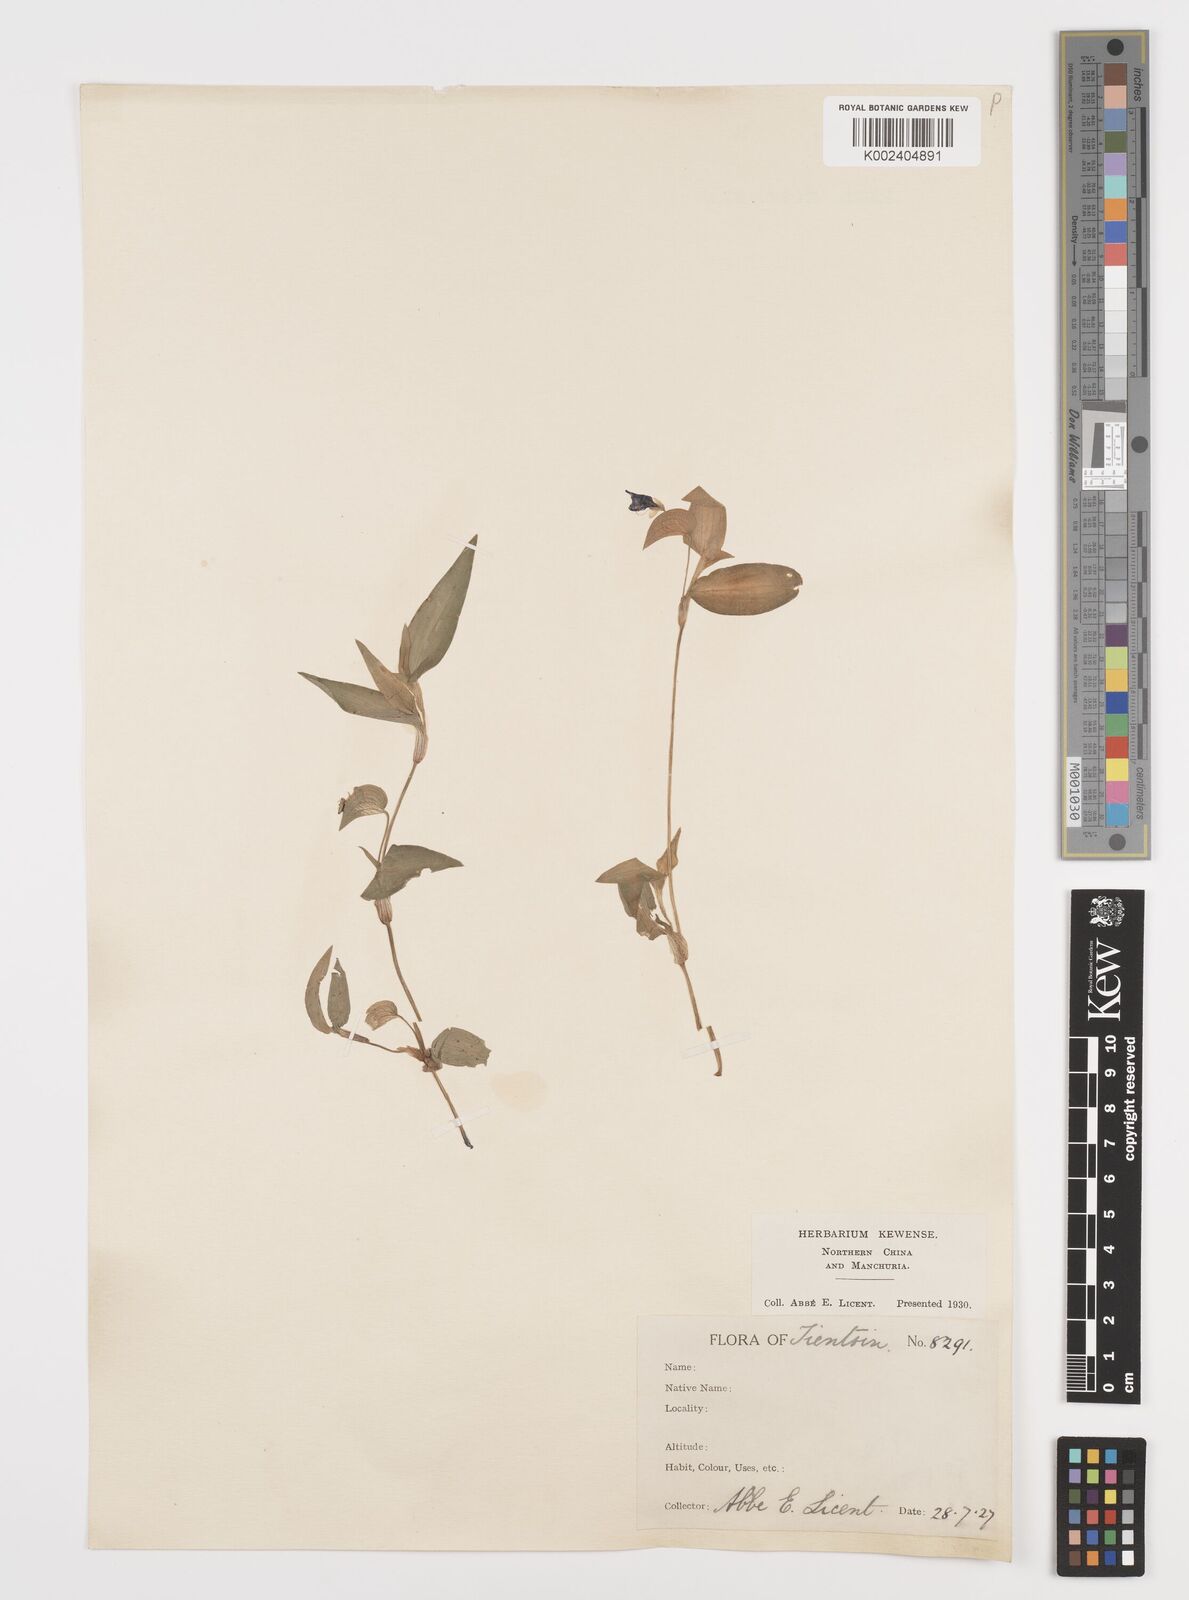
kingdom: Plantae
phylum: Tracheophyta
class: Liliopsida
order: Commelinales
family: Commelinaceae
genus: Commelina
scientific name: Commelina
